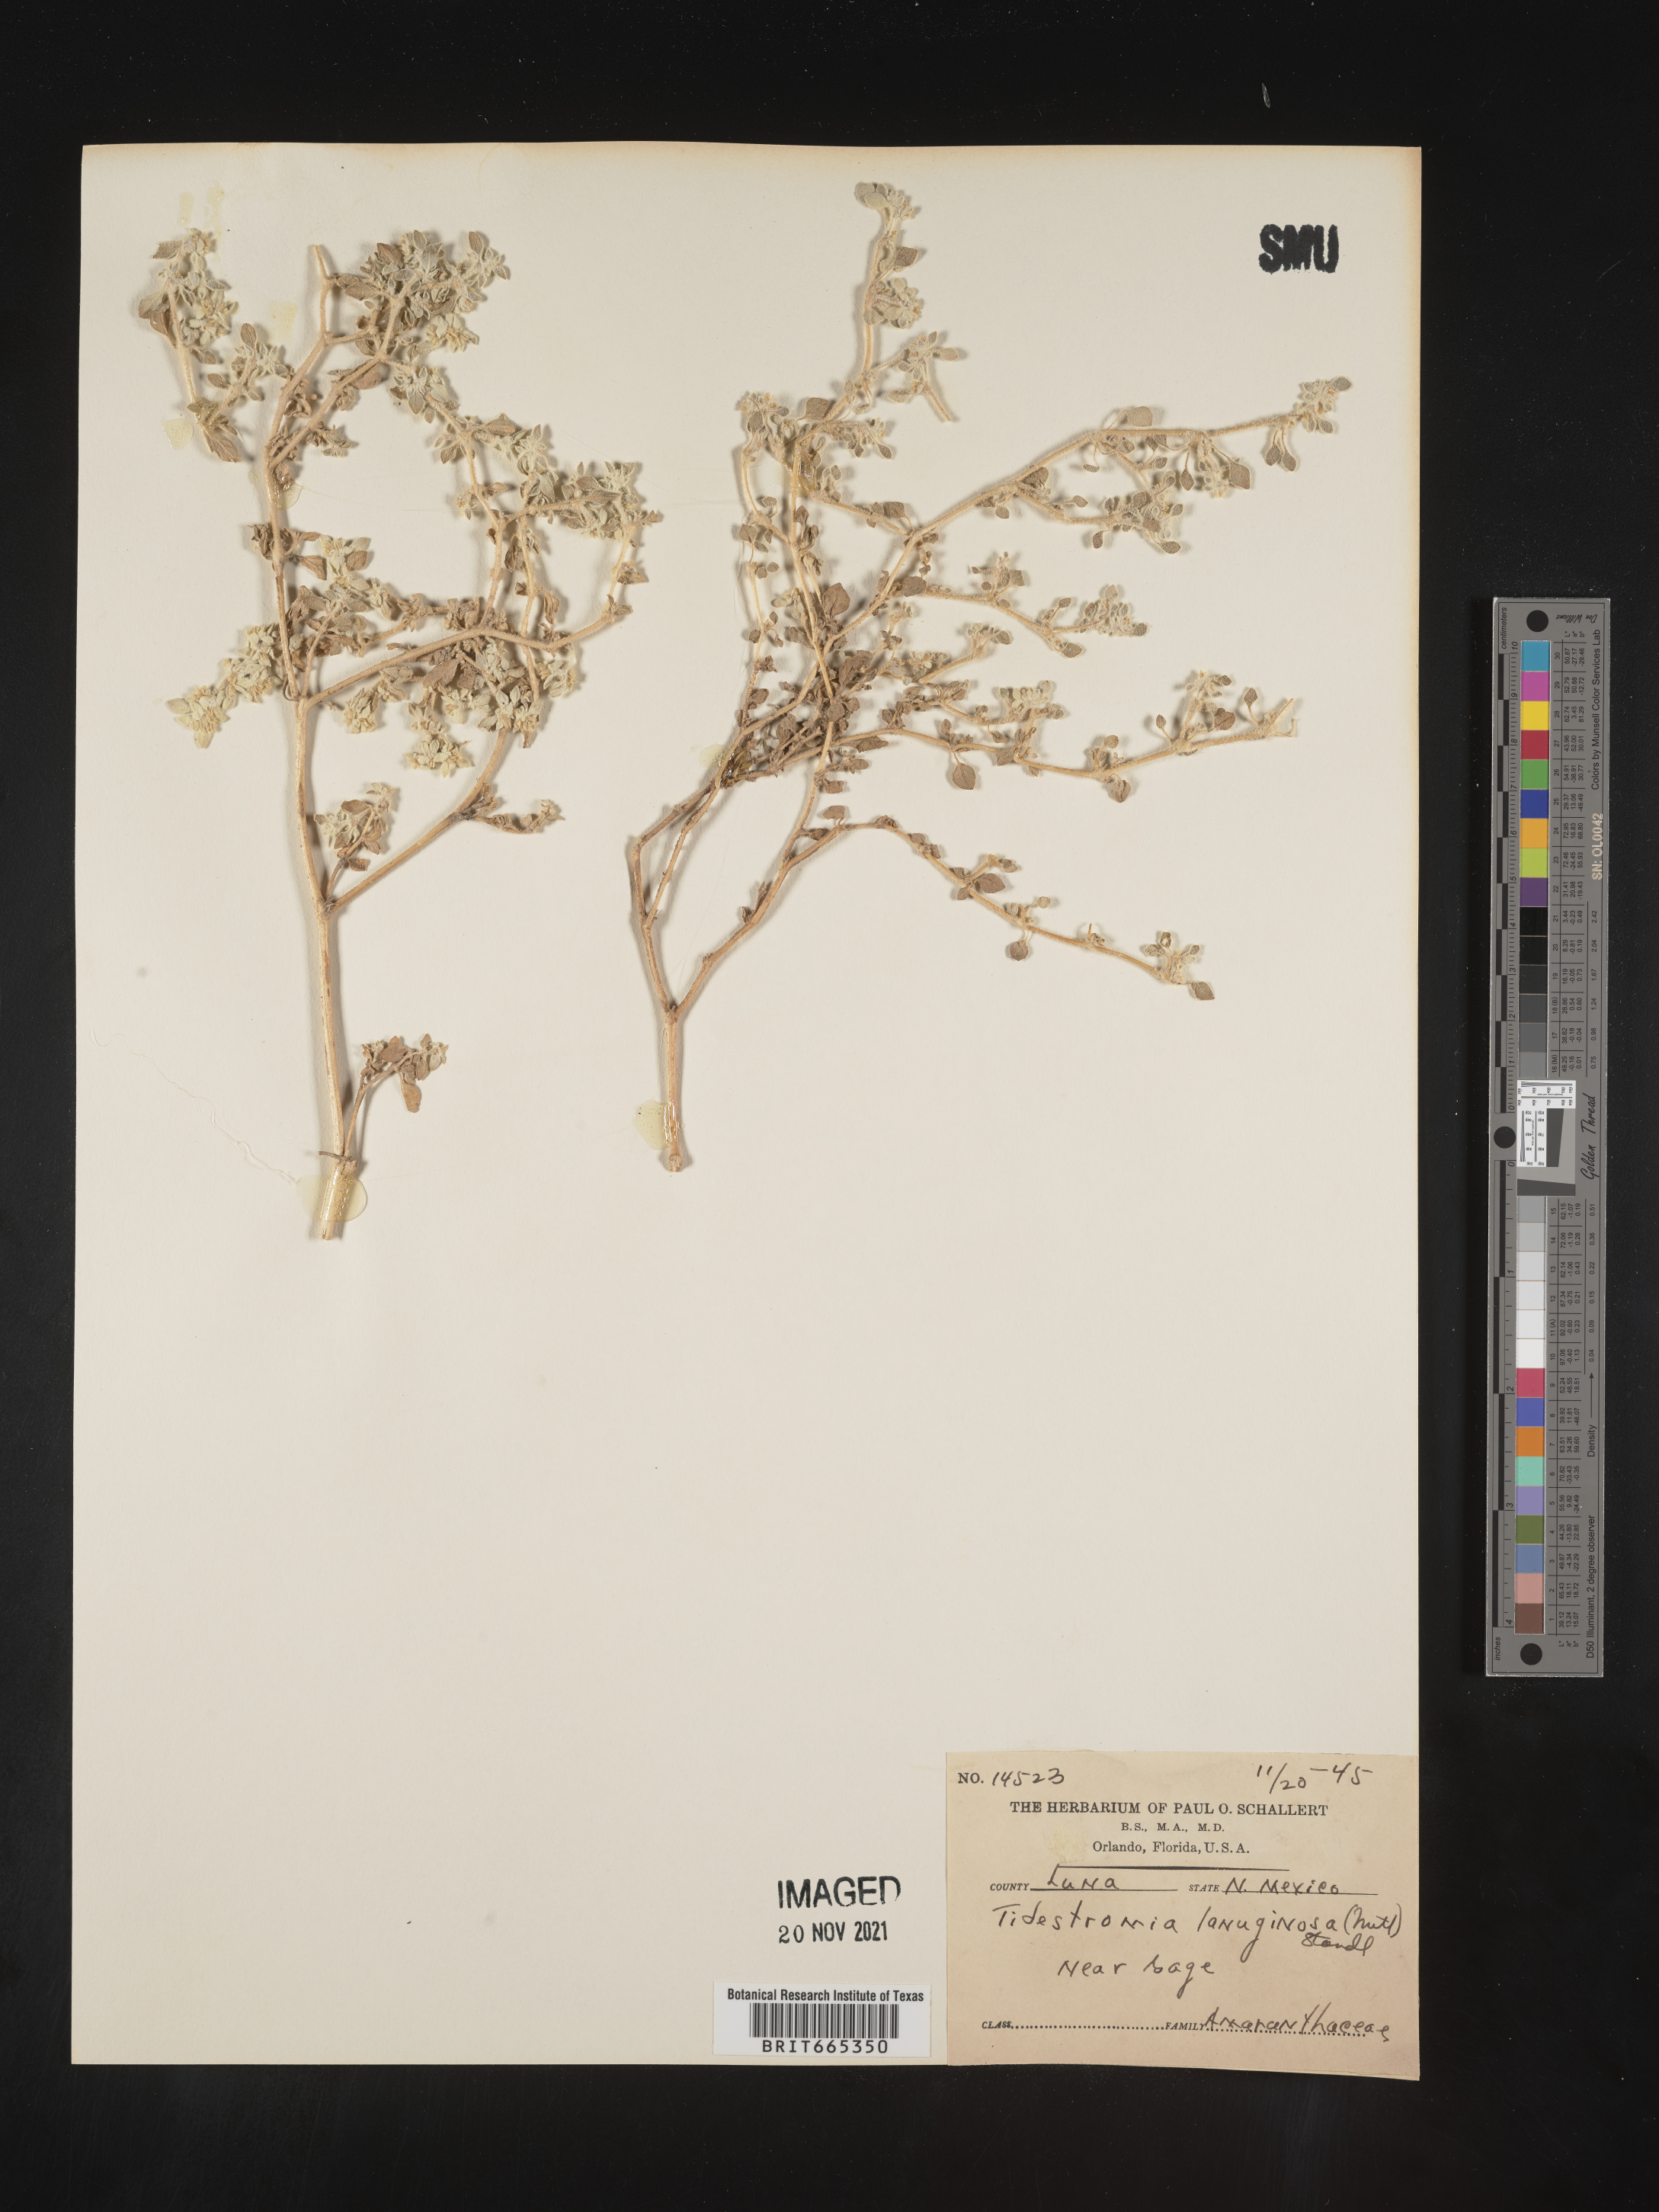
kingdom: Plantae
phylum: Tracheophyta
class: Magnoliopsida
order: Caryophyllales
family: Amaranthaceae
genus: Tidestromia
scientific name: Tidestromia lanuginosa
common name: Woolly tidestromia
